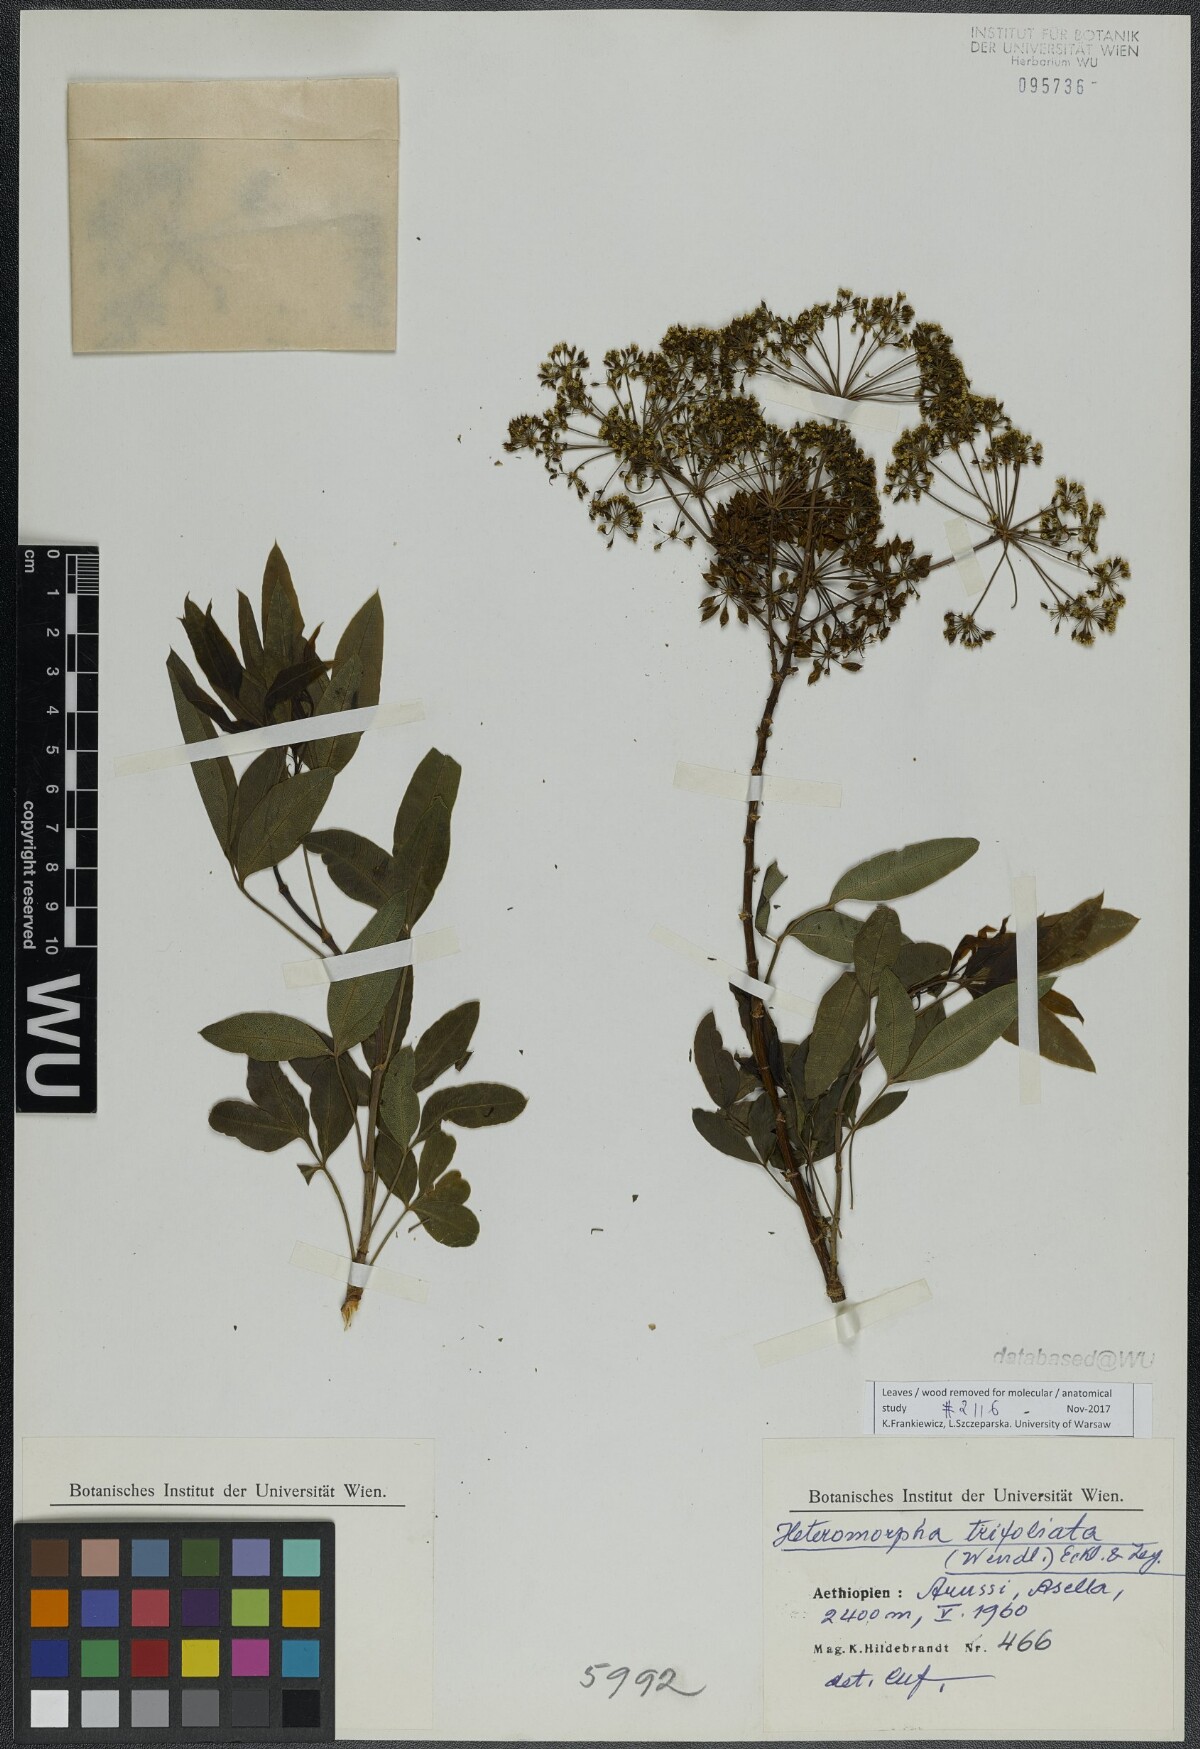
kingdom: Plantae
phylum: Tracheophyta
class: Magnoliopsida
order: Apiales
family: Apiaceae
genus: Heteromorpha
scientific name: Heteromorpha arborescens
